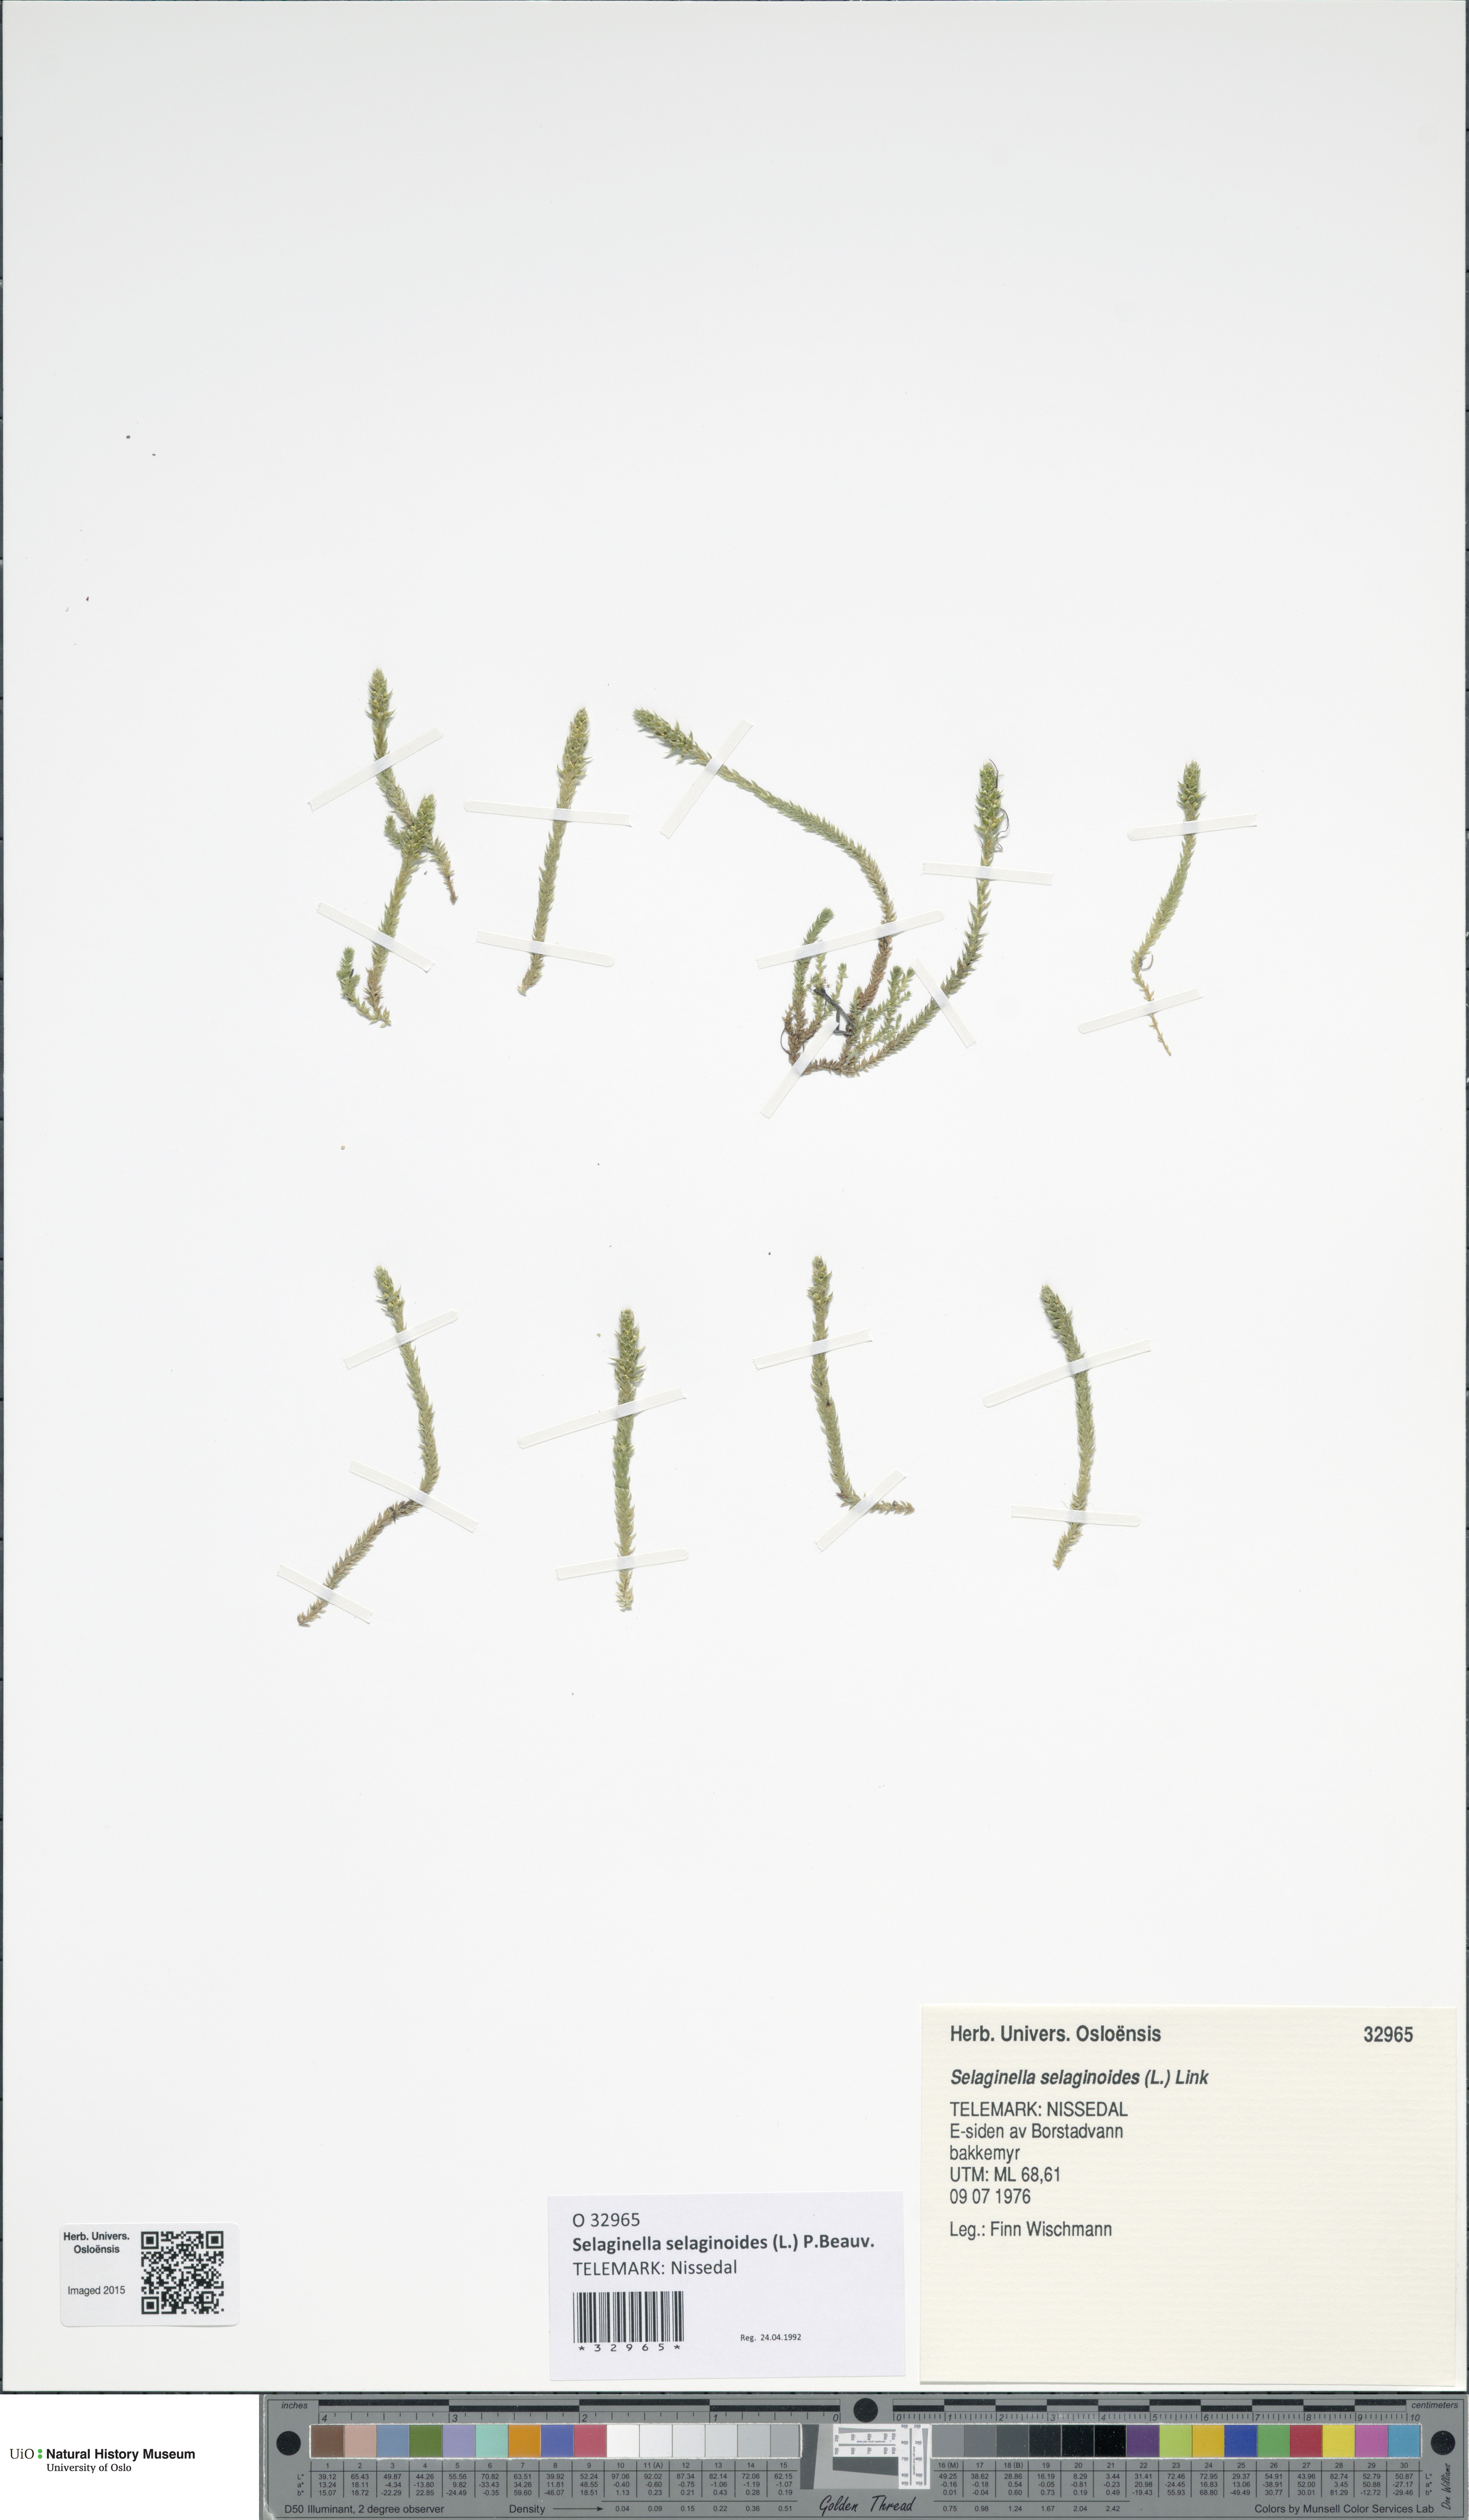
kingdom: Plantae
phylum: Tracheophyta
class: Lycopodiopsida
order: Selaginellales
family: Selaginellaceae
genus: Selaginella
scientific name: Selaginella selaginoides
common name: Prickly mountain-moss
